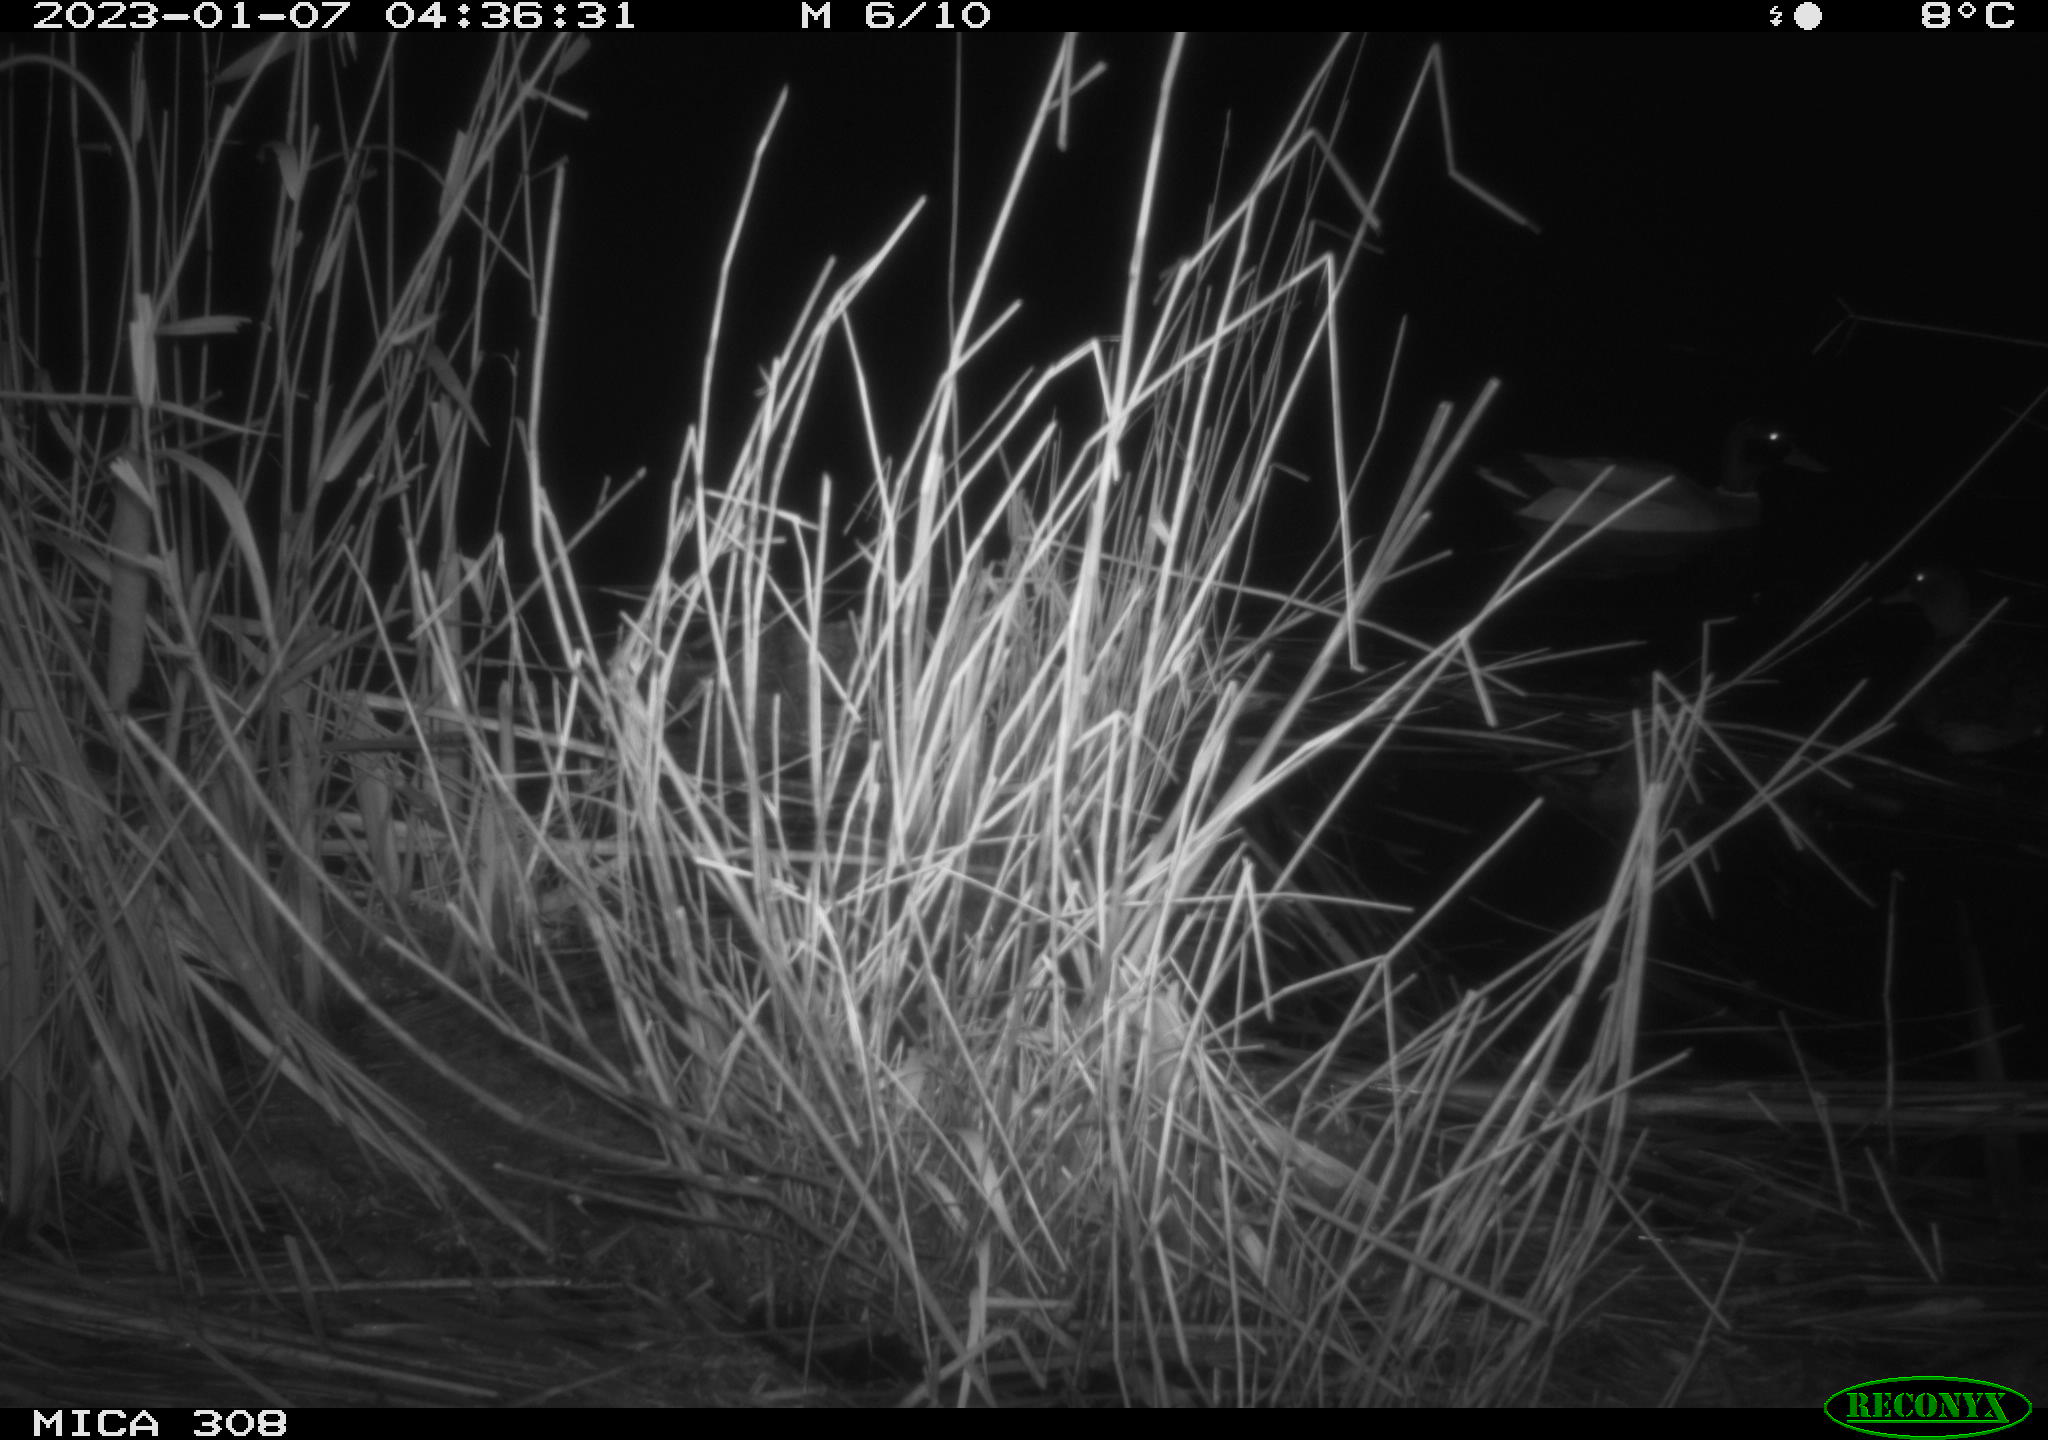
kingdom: Animalia
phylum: Chordata
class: Aves
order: Anseriformes
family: Anatidae
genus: Anas
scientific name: Anas
